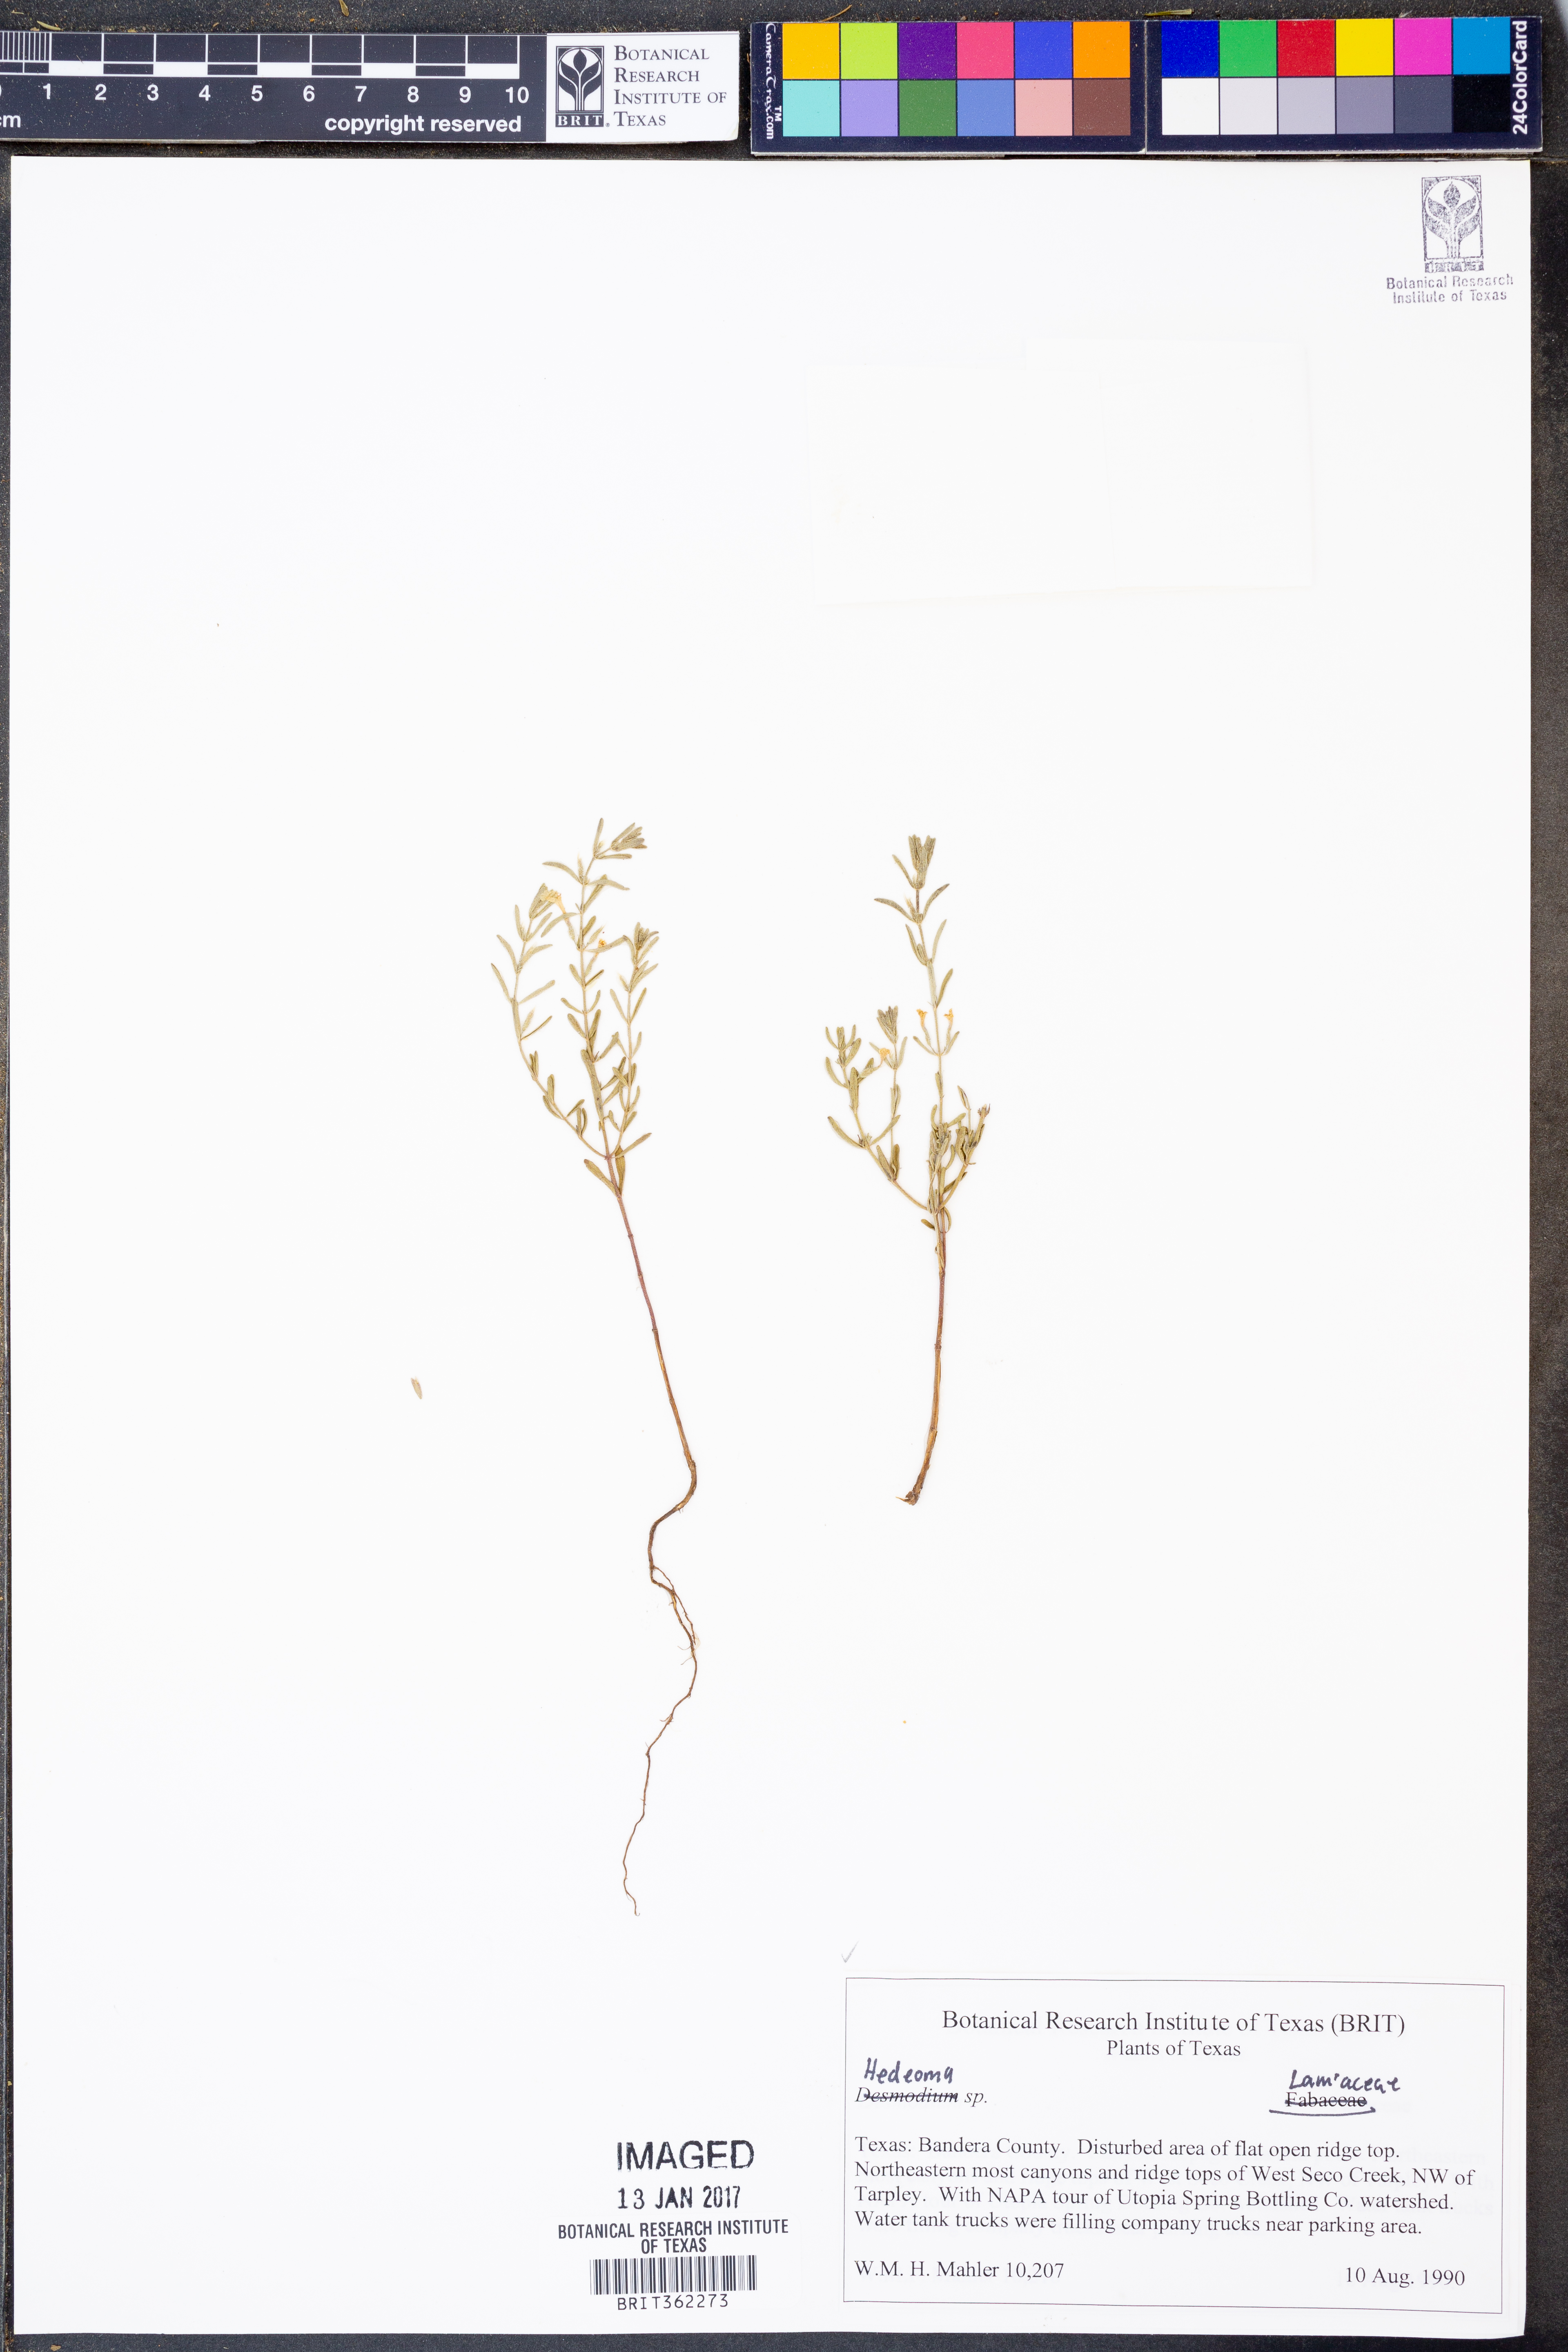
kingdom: Plantae
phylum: Tracheophyta
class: Magnoliopsida
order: Lamiales
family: Lamiaceae
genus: Hedeoma
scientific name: Hedeoma
